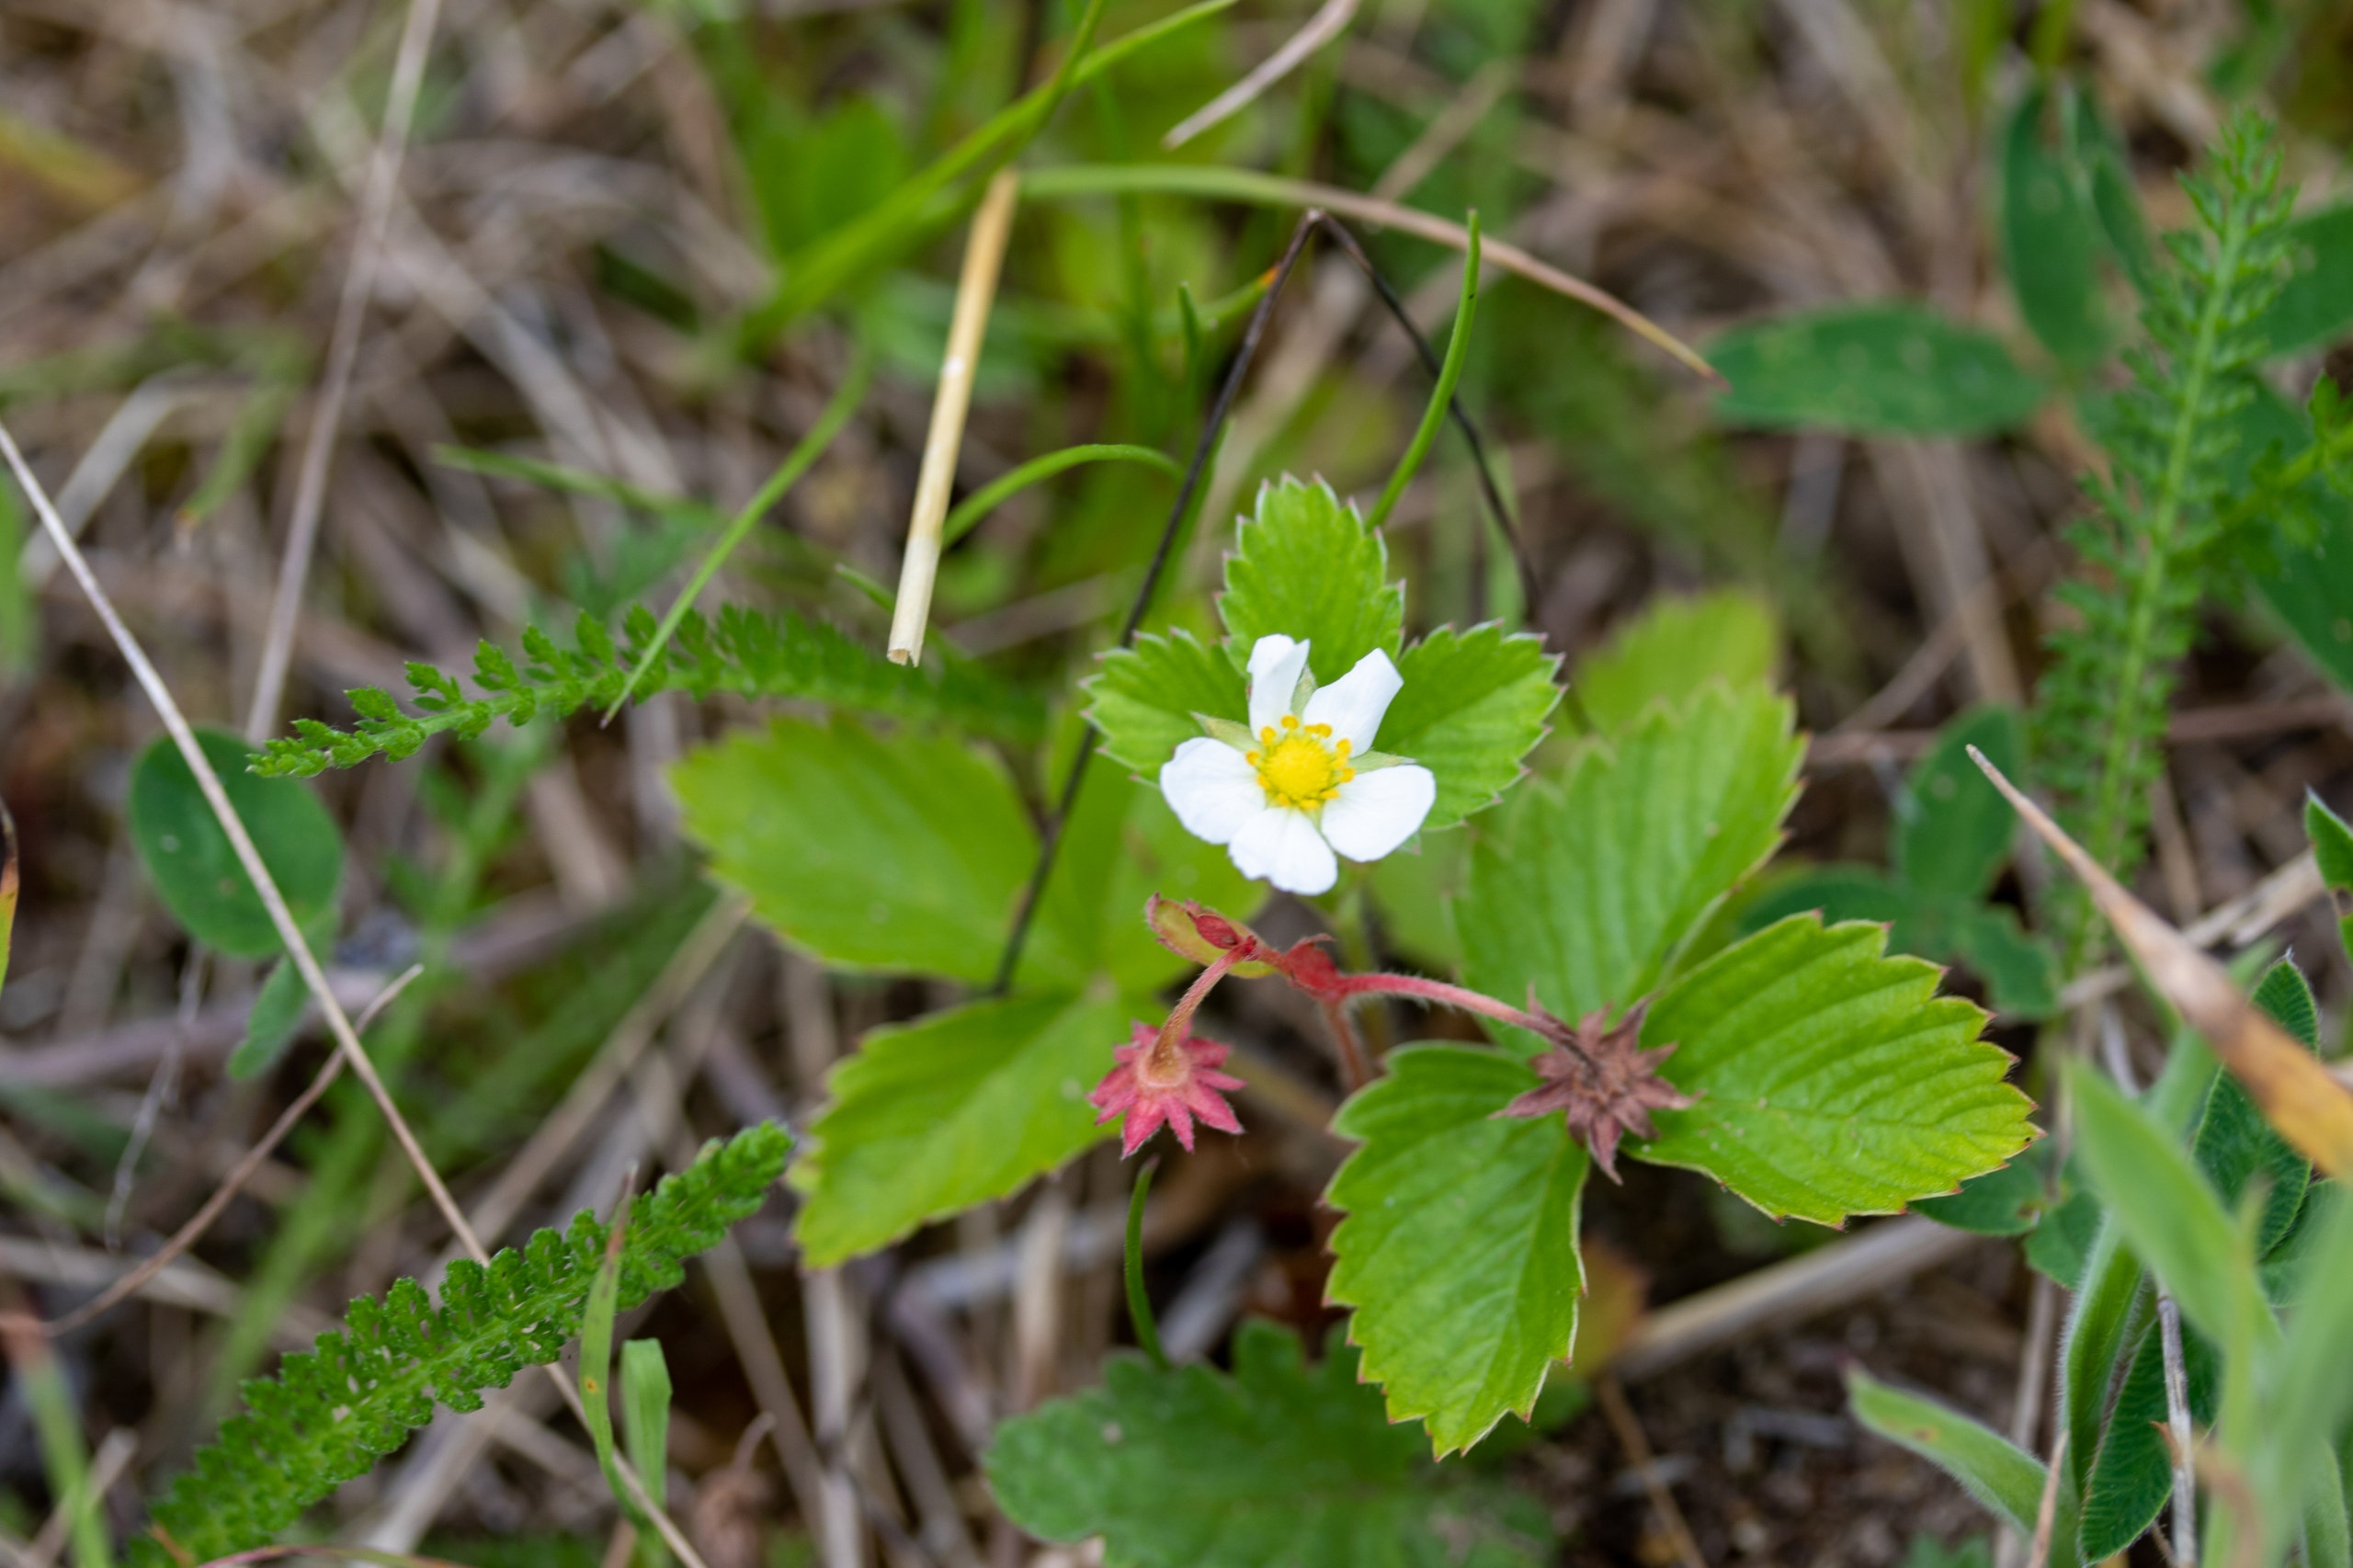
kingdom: Plantae
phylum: Tracheophyta
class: Magnoliopsida
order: Rosales
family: Rosaceae
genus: Fragaria
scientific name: Fragaria vesca
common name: Skov-jordbær
